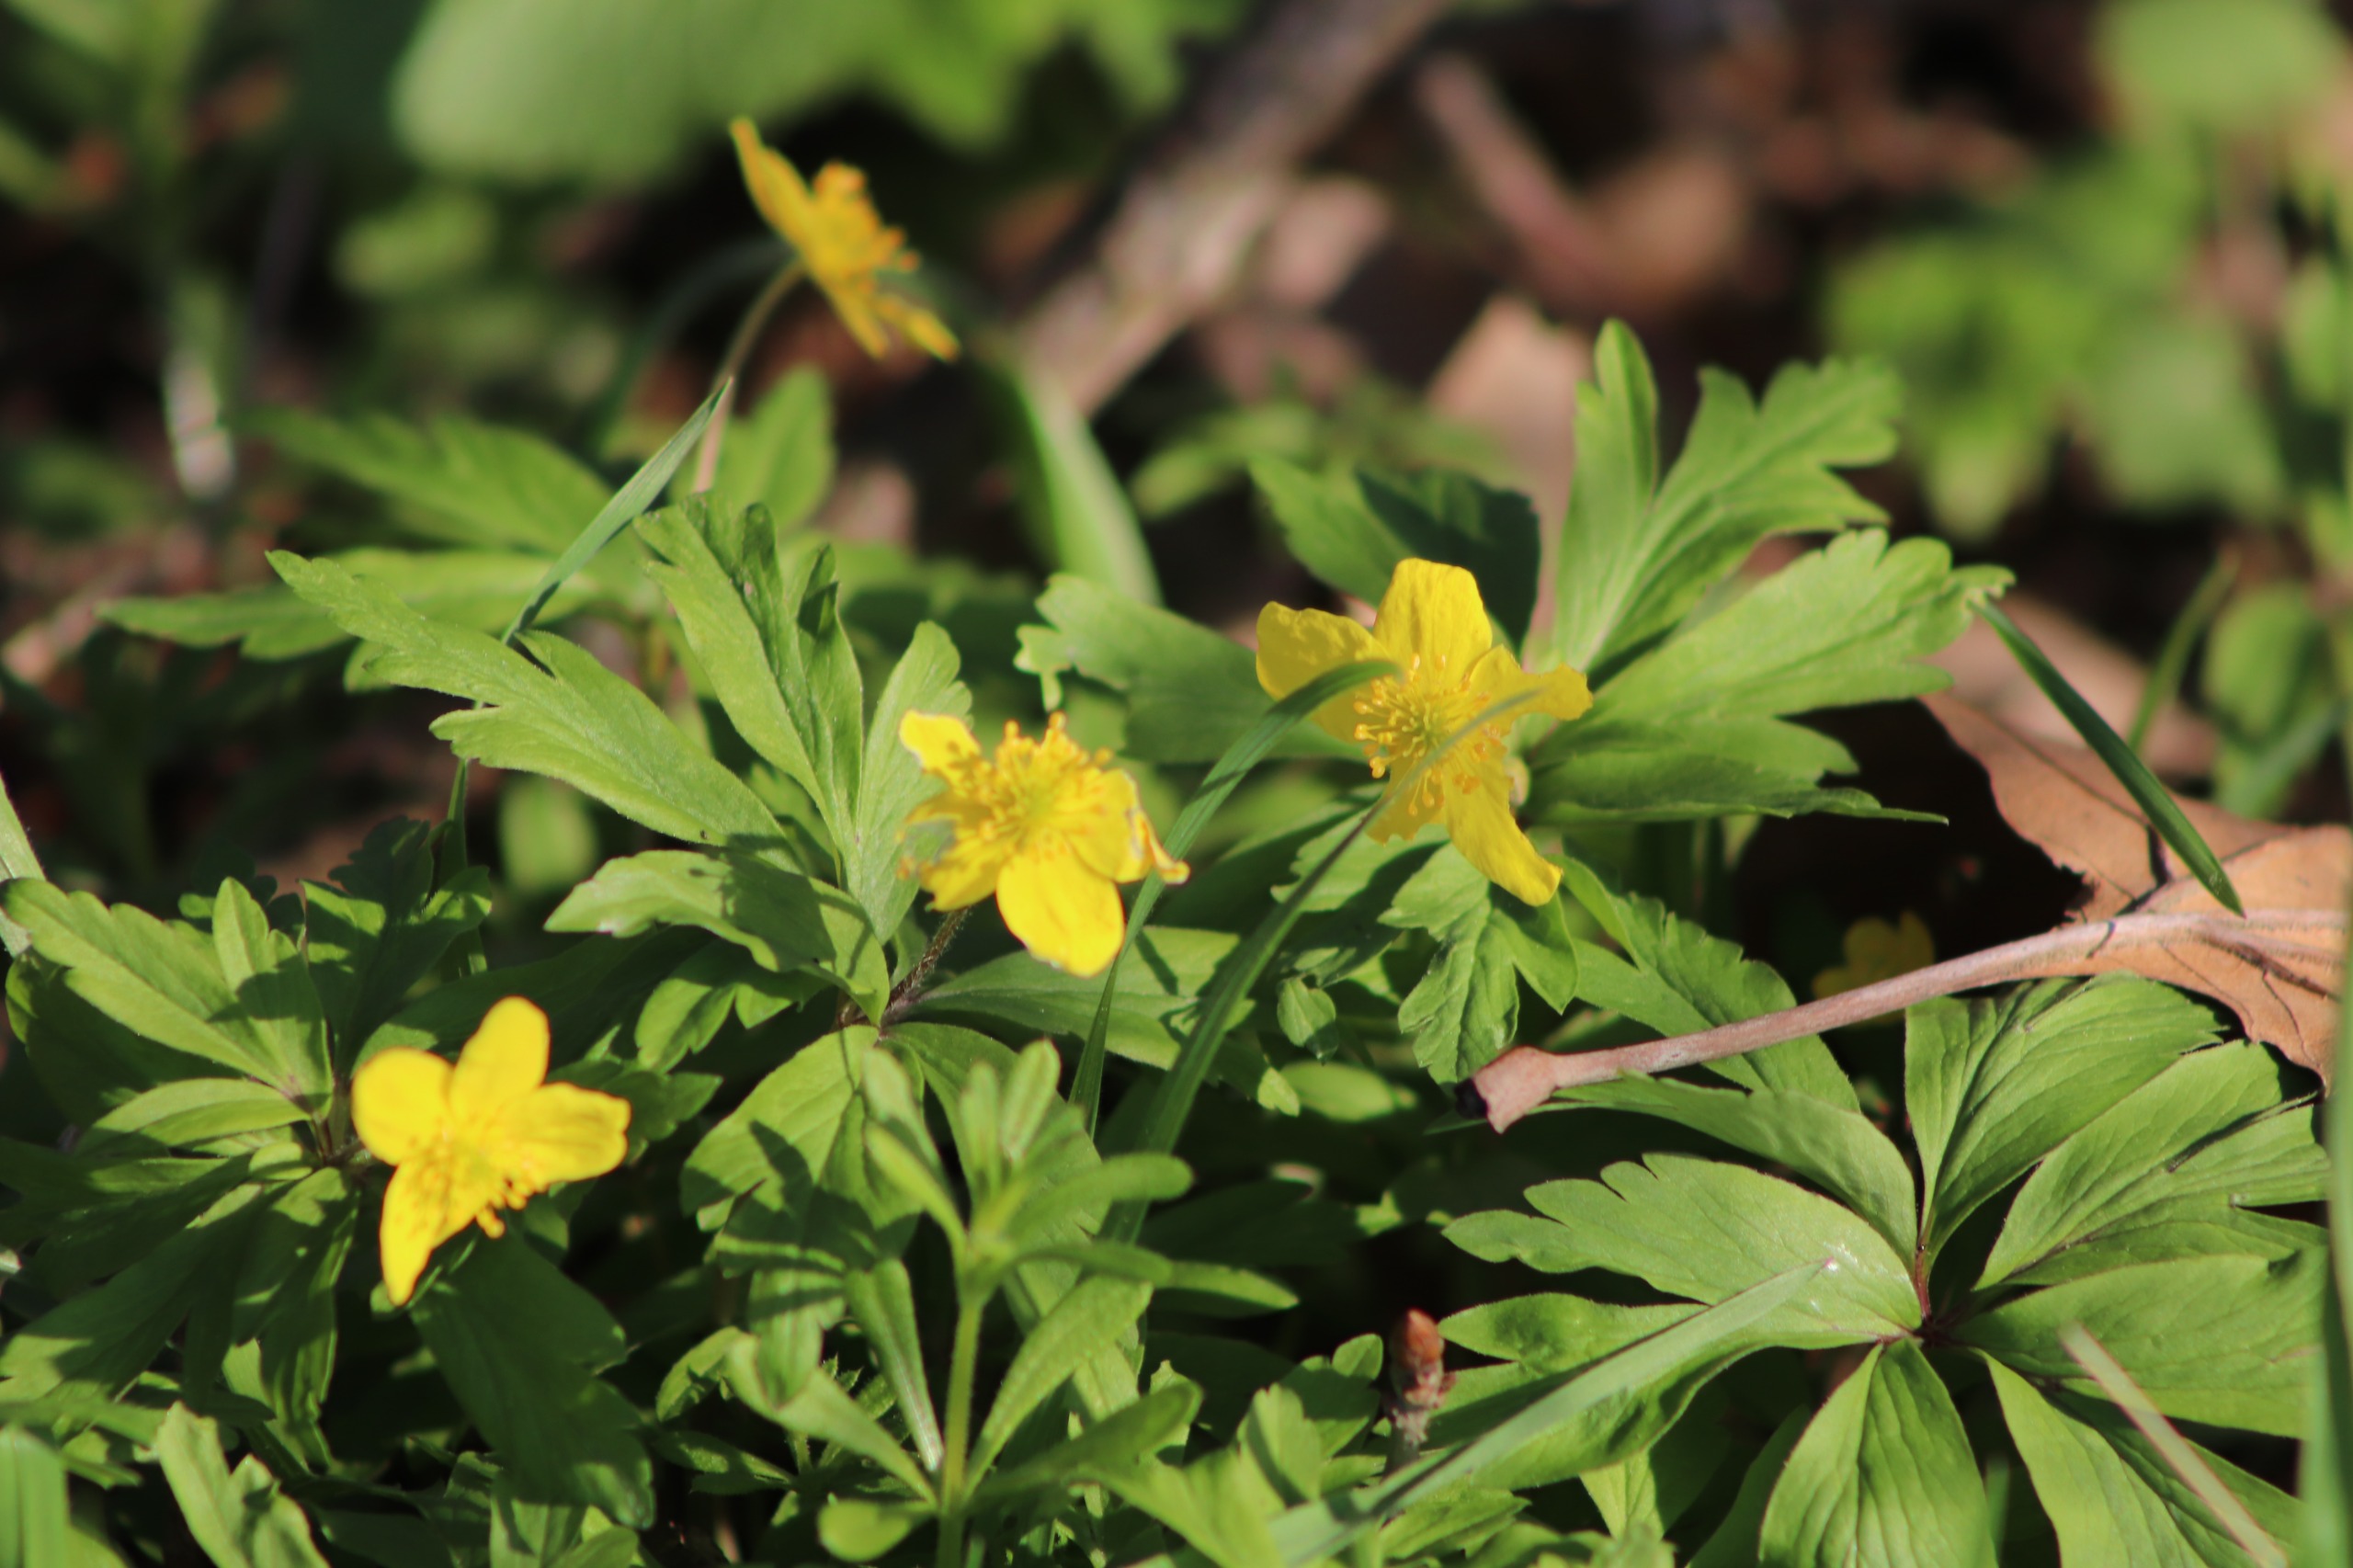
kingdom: Plantae
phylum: Tracheophyta
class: Magnoliopsida
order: Ranunculales
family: Ranunculaceae
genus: Anemone
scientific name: Anemone ranunculoides
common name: Gul anemone
